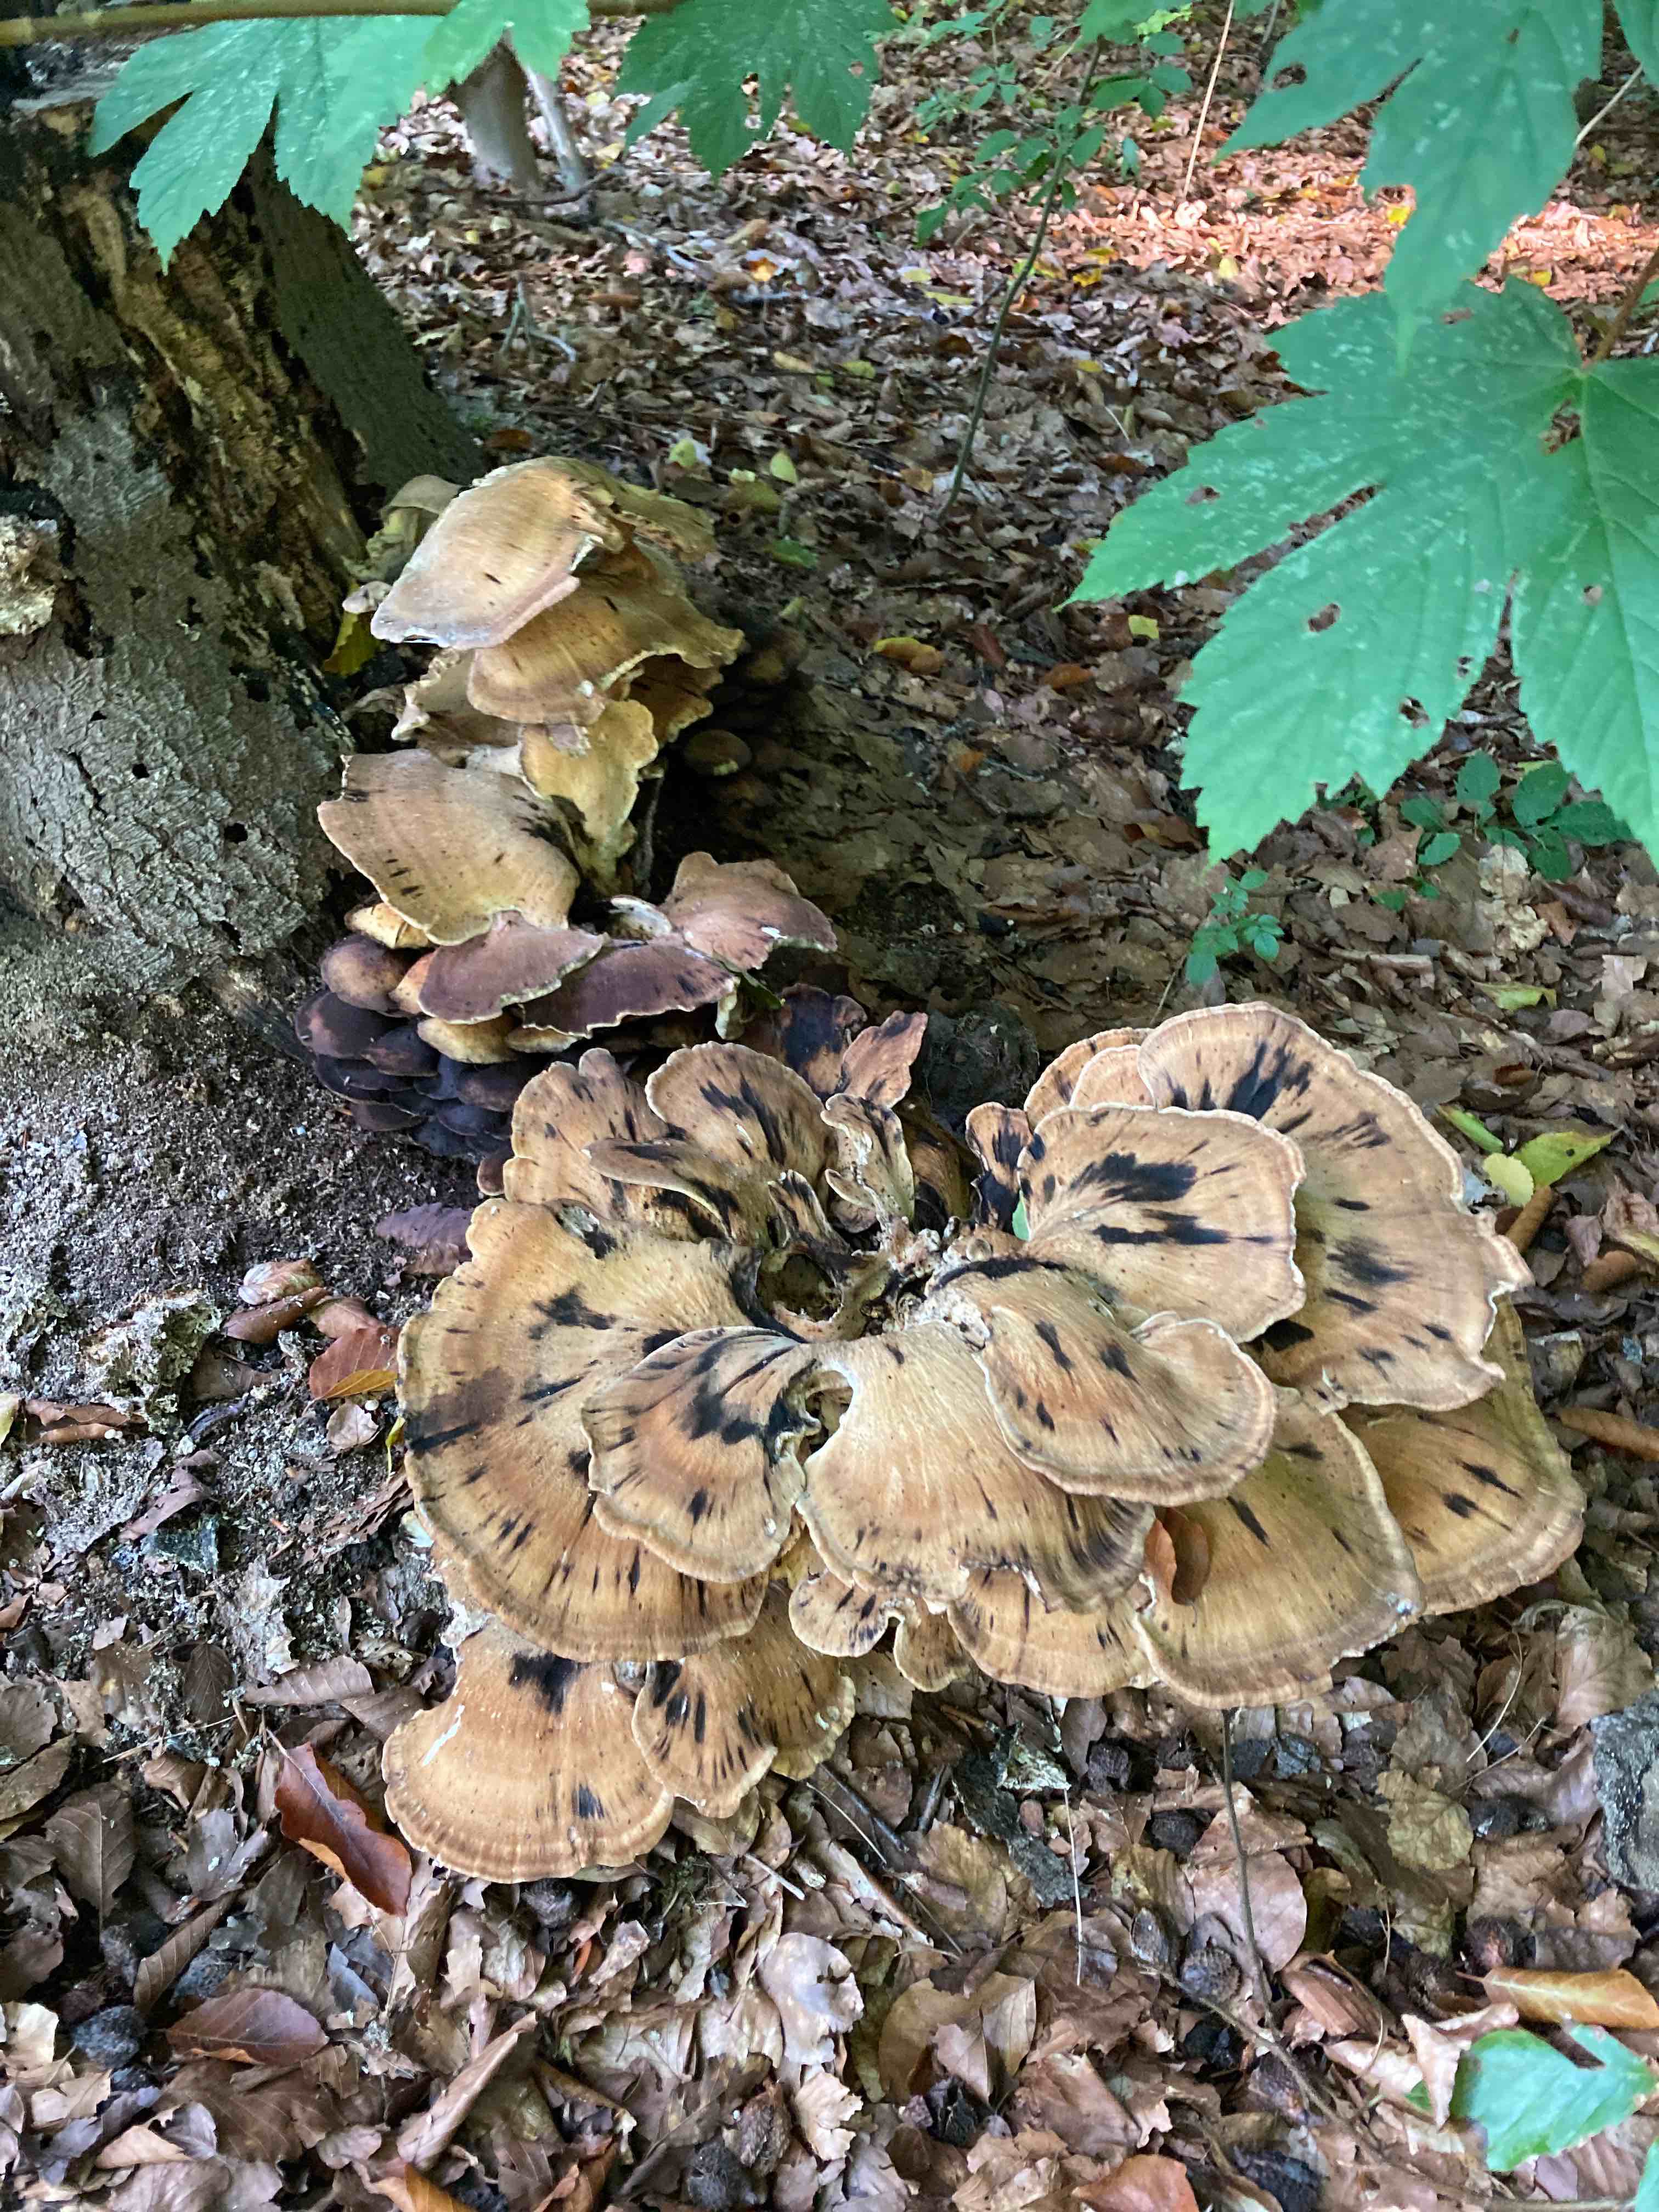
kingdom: Fungi
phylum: Basidiomycota
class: Agaricomycetes
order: Polyporales
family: Meripilaceae
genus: Meripilus
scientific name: Meripilus giganteus
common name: kæmpeporesvamp
